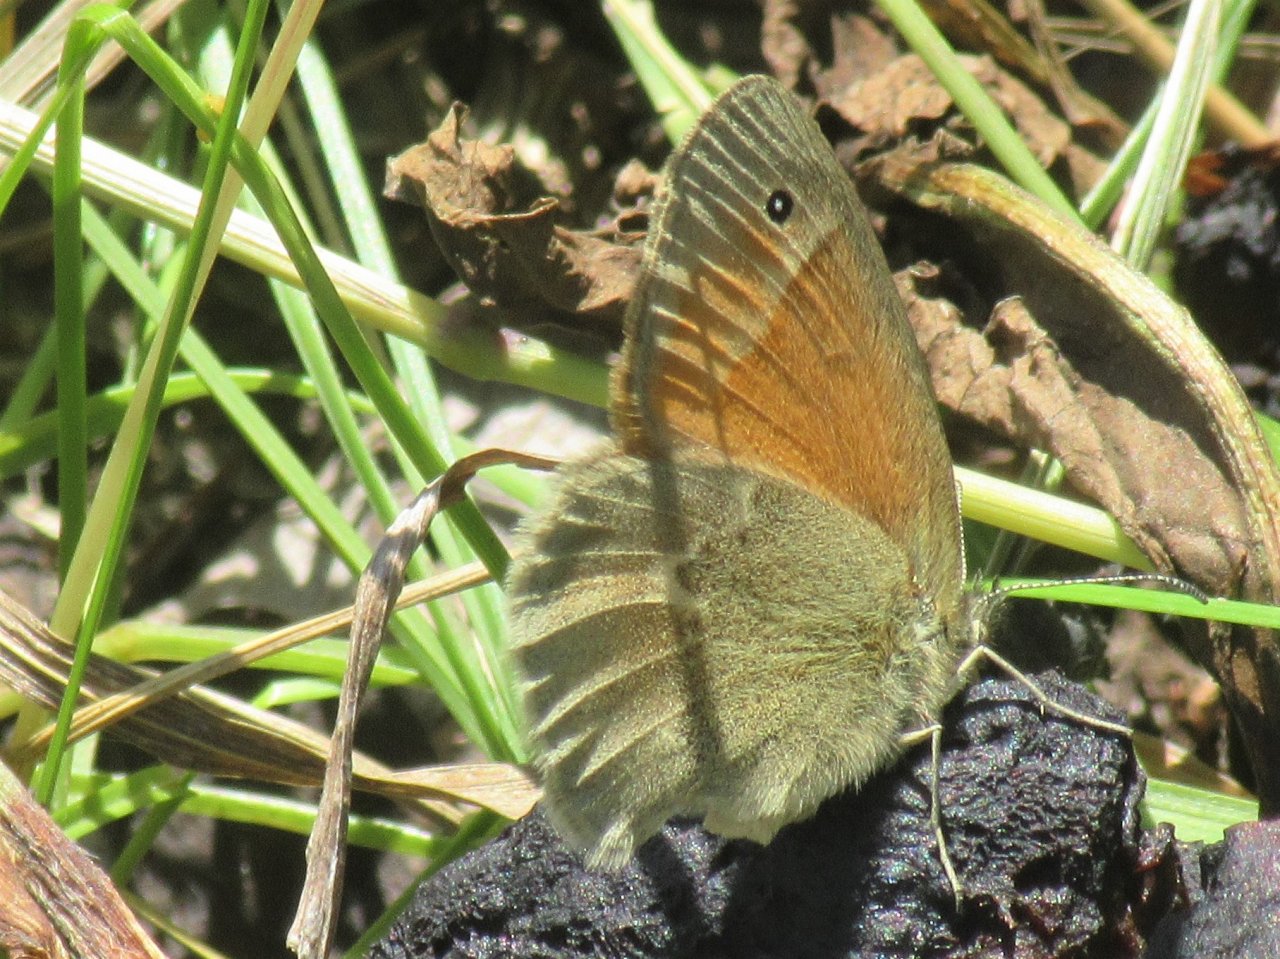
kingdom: Animalia
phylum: Arthropoda
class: Insecta
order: Lepidoptera
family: Nymphalidae
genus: Coenonympha
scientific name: Coenonympha tullia
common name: Large Heath
